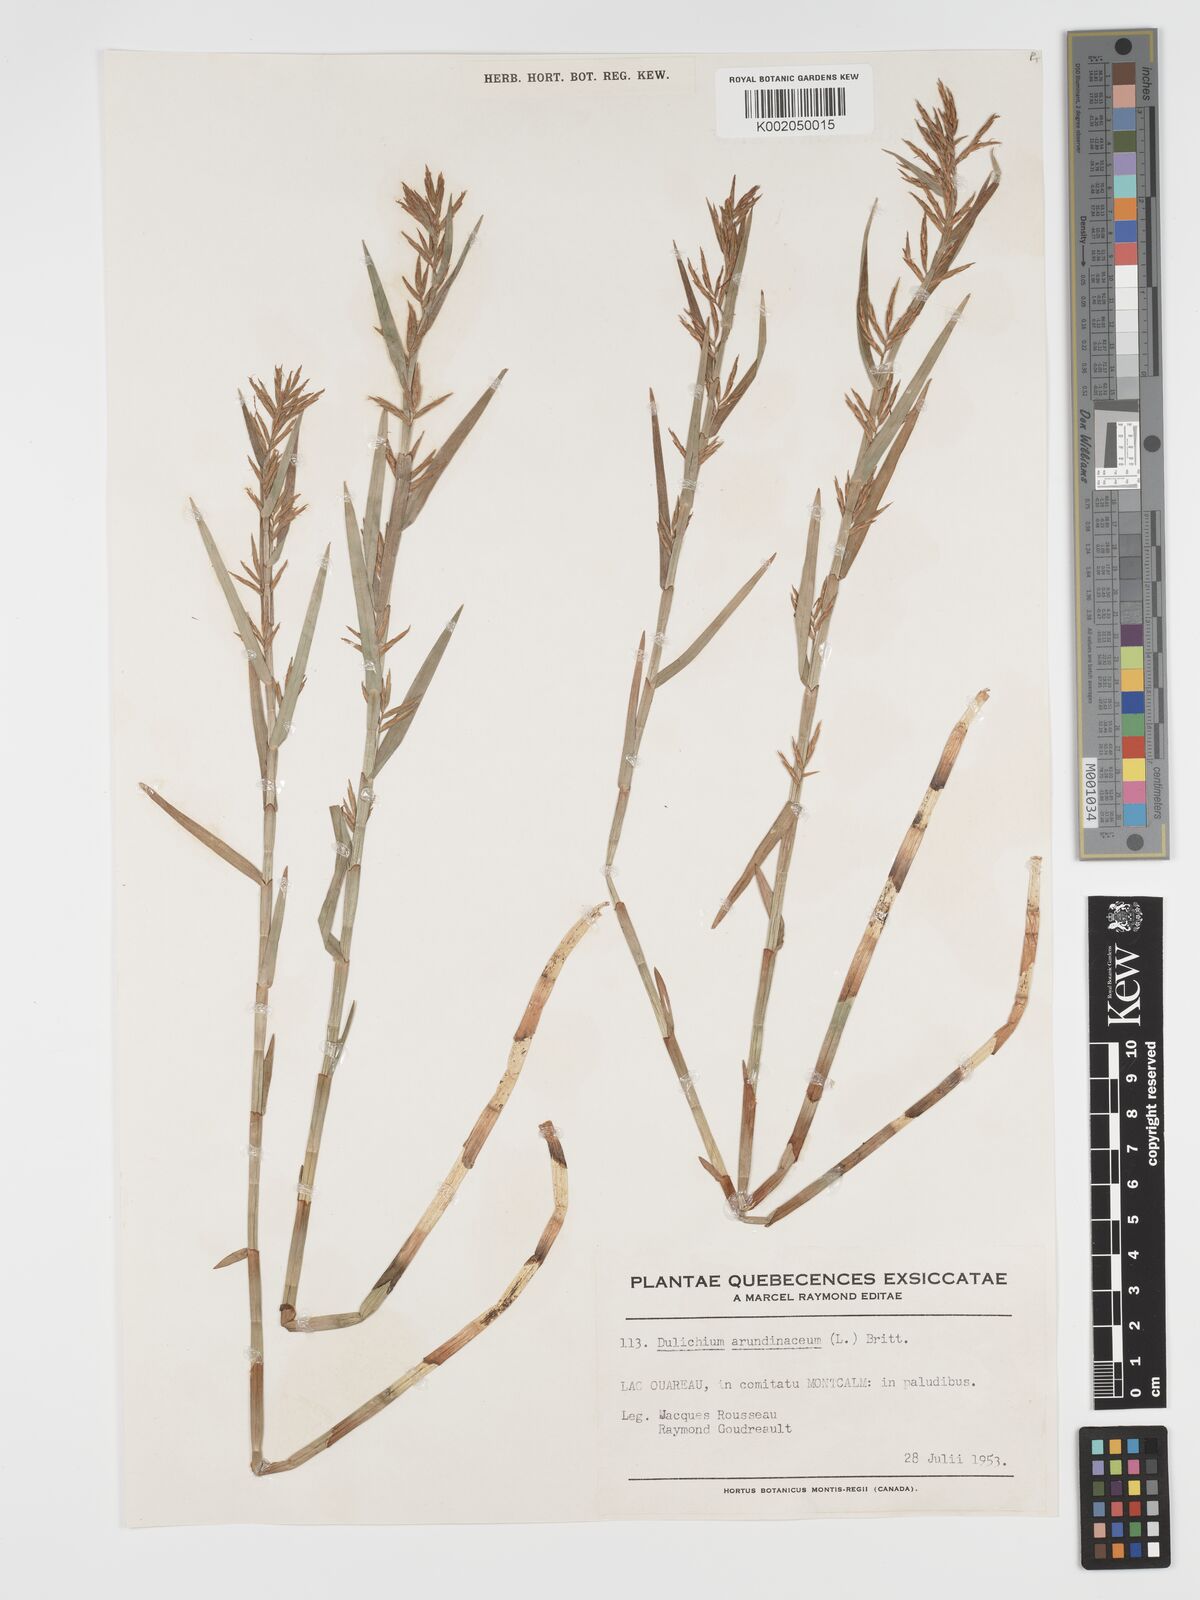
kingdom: Plantae
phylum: Tracheophyta
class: Liliopsida
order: Poales
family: Cyperaceae
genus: Dulichium
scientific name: Dulichium arundinaceum
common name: Three-way sedge
